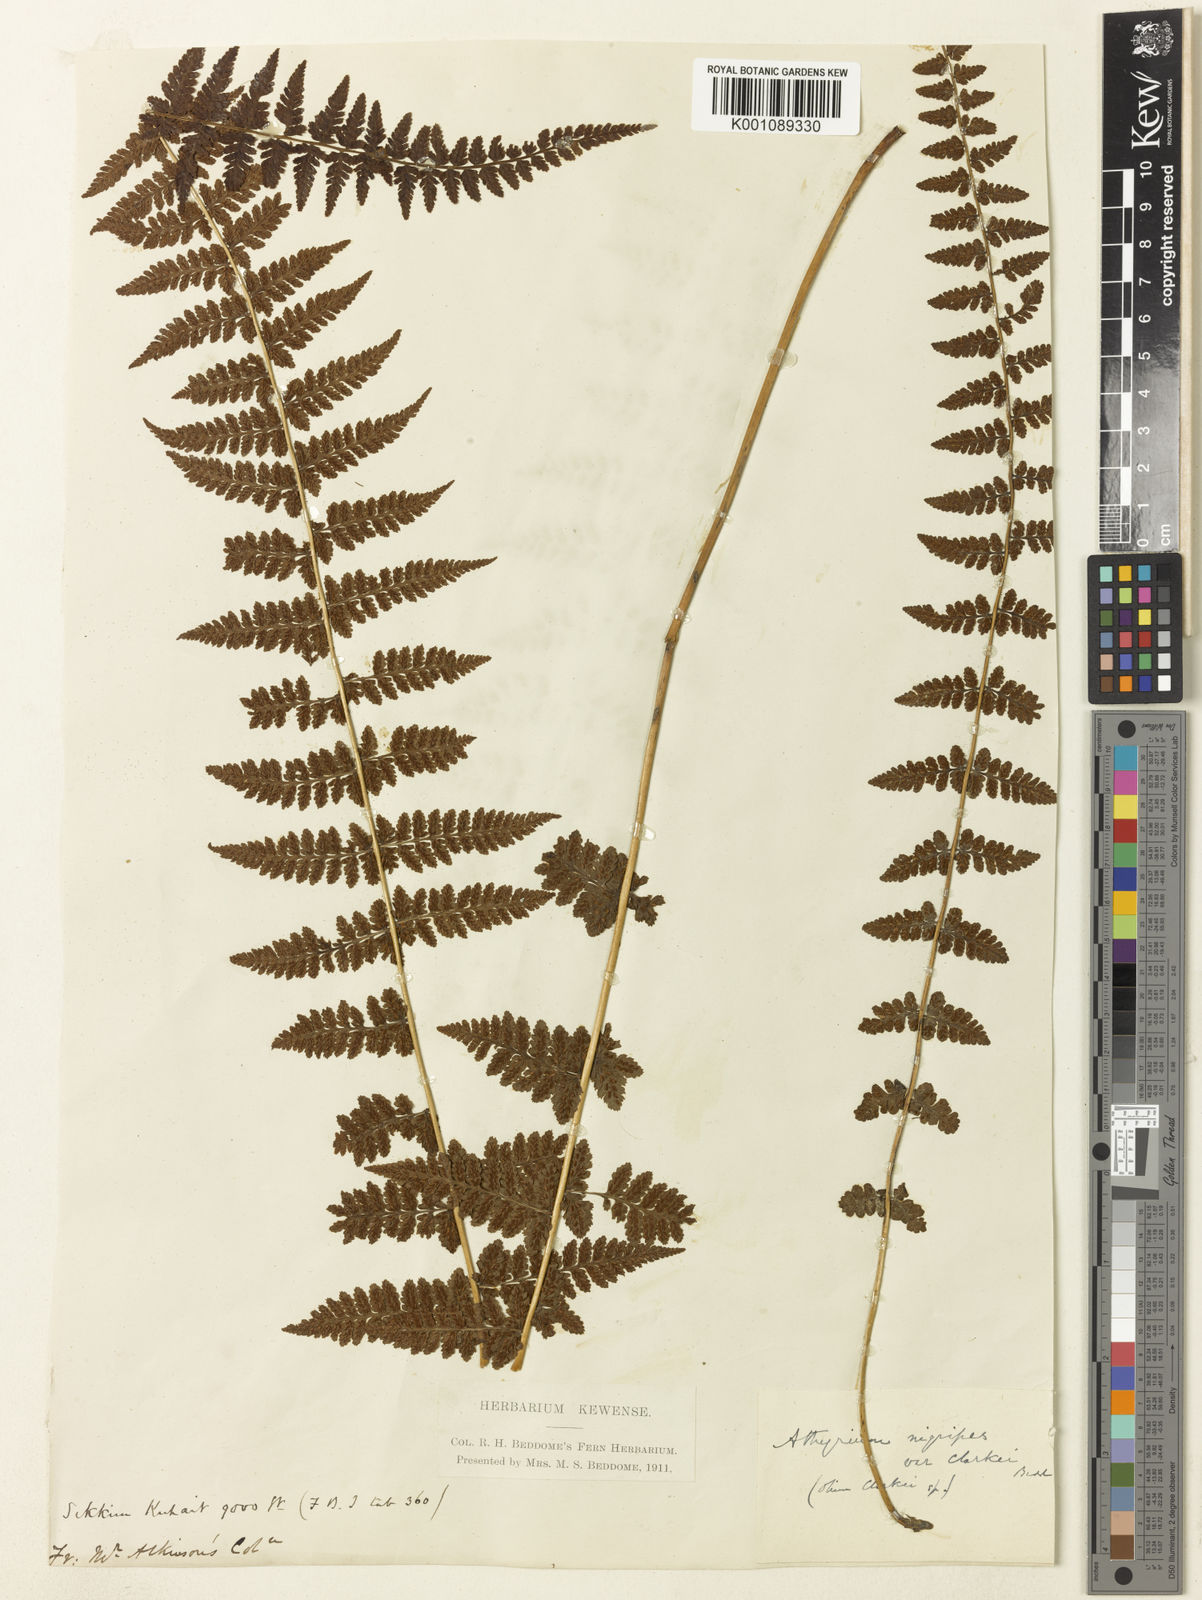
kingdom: Plantae
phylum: Tracheophyta
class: Polypodiopsida
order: Polypodiales
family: Athyriaceae
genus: Athyrium
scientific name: Athyrium clarkei
